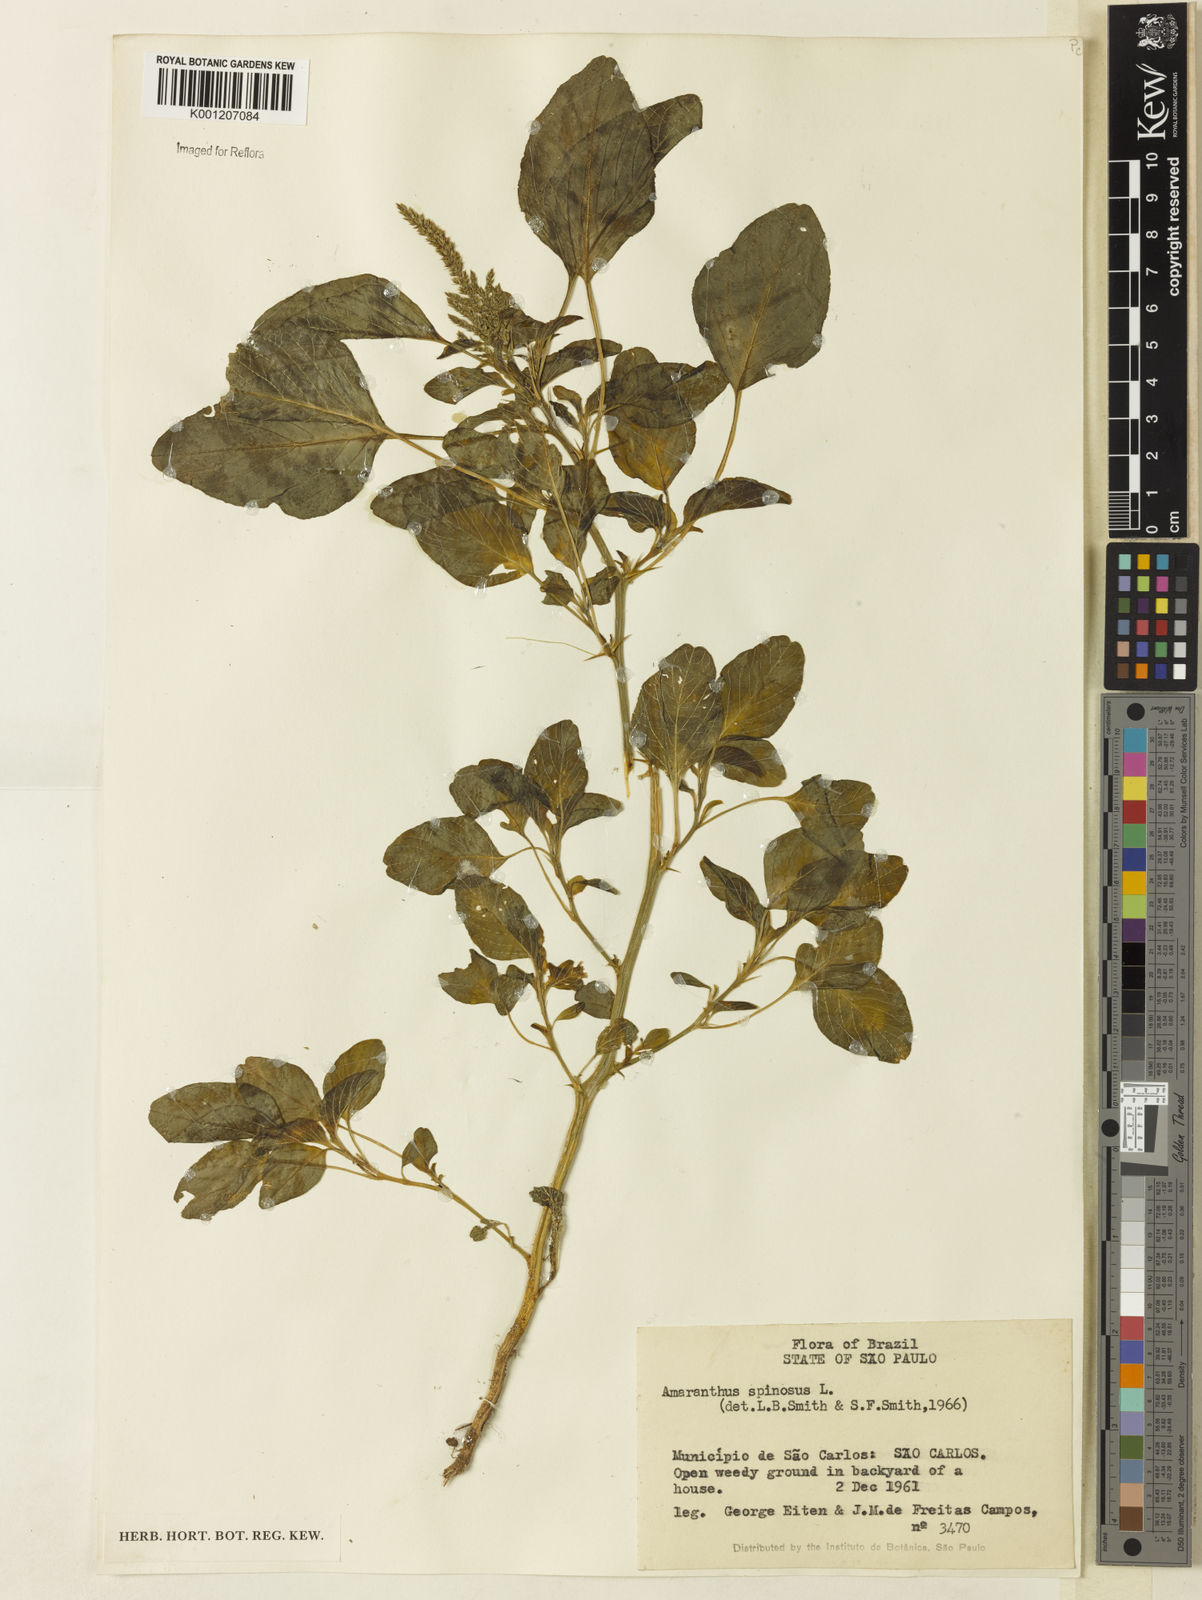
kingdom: Plantae
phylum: Tracheophyta
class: Magnoliopsida
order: Caryophyllales
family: Amaranthaceae
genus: Amaranthus
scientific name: Amaranthus spinosus
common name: Spiny amaranth
